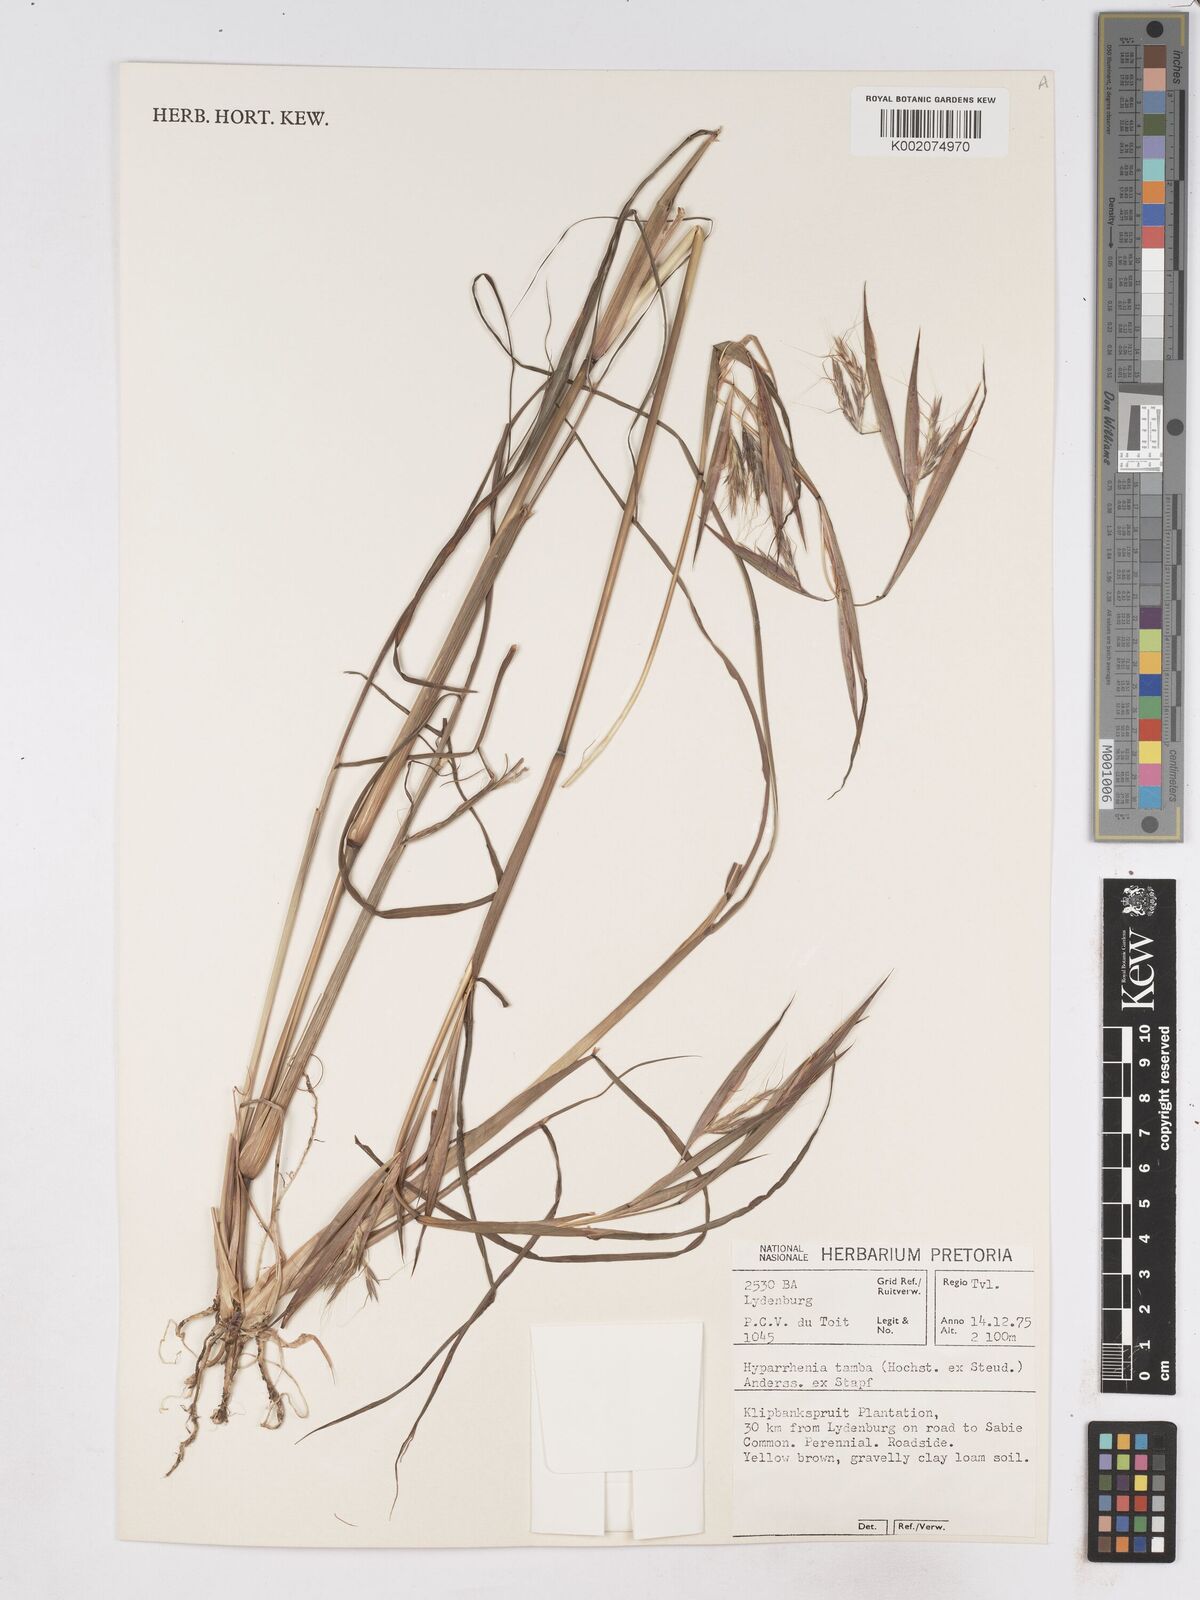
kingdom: Plantae
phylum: Tracheophyta
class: Liliopsida
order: Poales
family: Poaceae
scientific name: Poaceae
